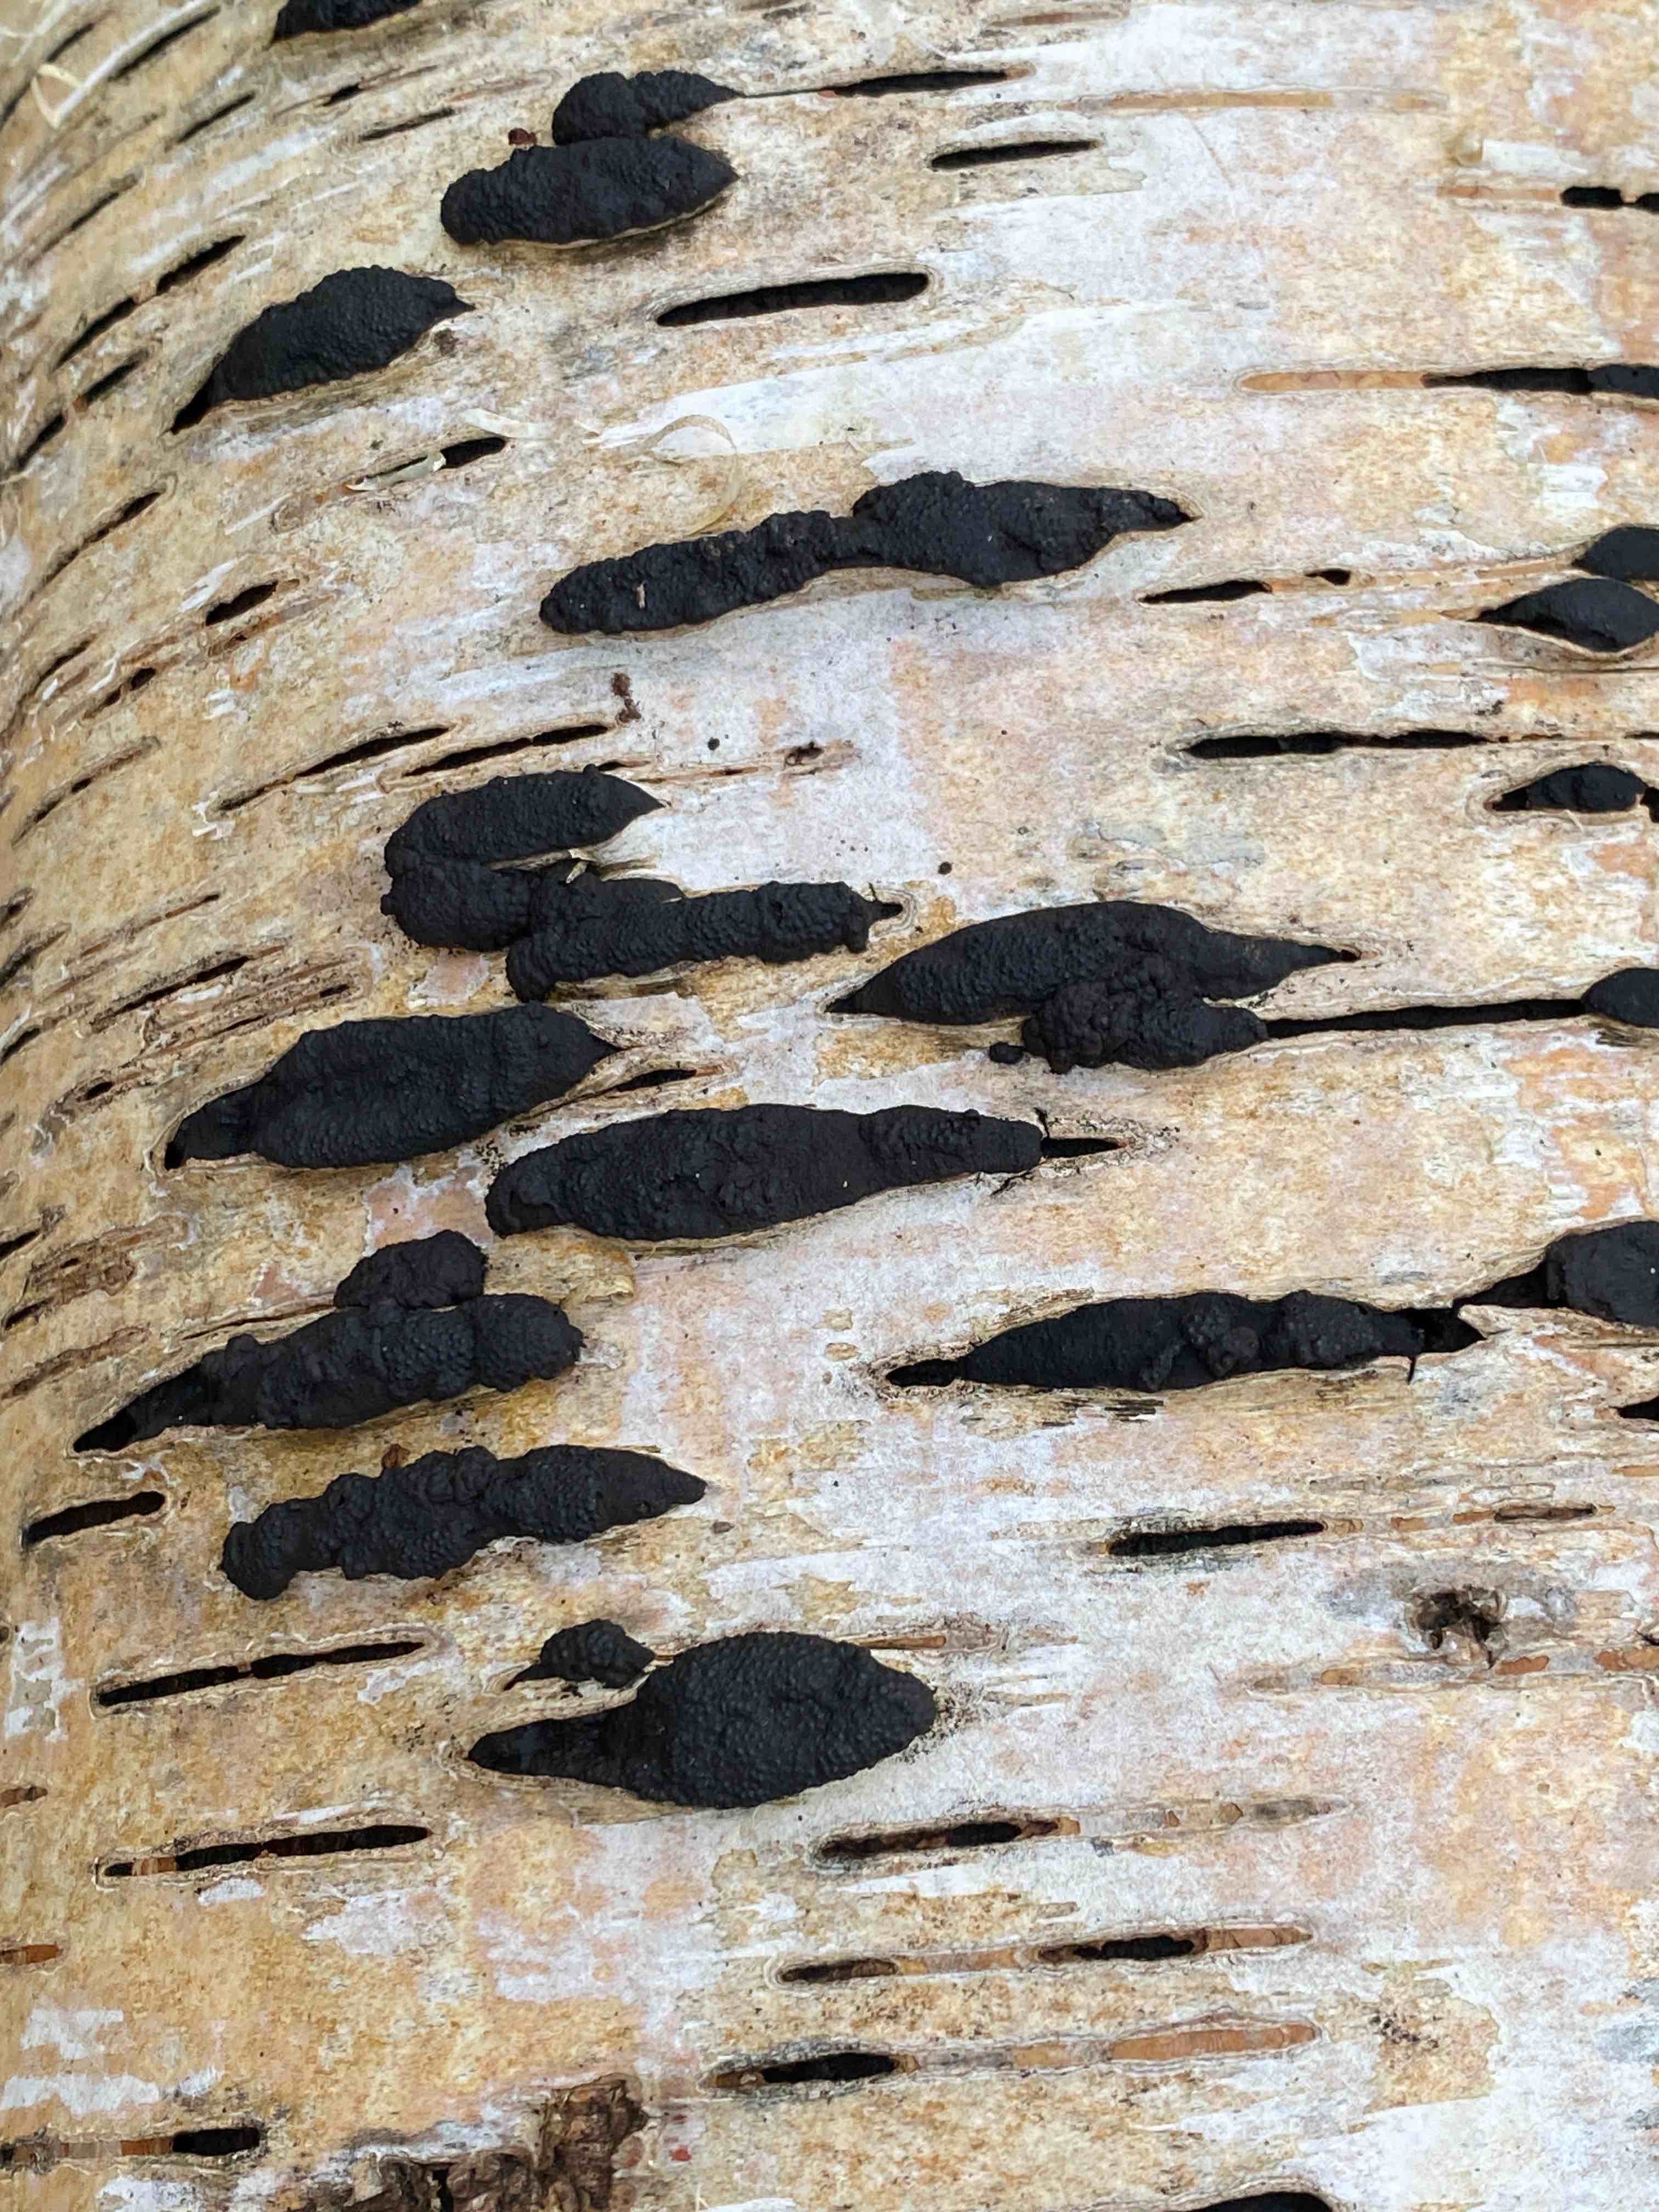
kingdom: Fungi
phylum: Ascomycota
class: Sordariomycetes
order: Xylariales
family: Hypoxylaceae
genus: Jackrogersella
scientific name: Jackrogersella multiformis
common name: foranderlig kulbær
